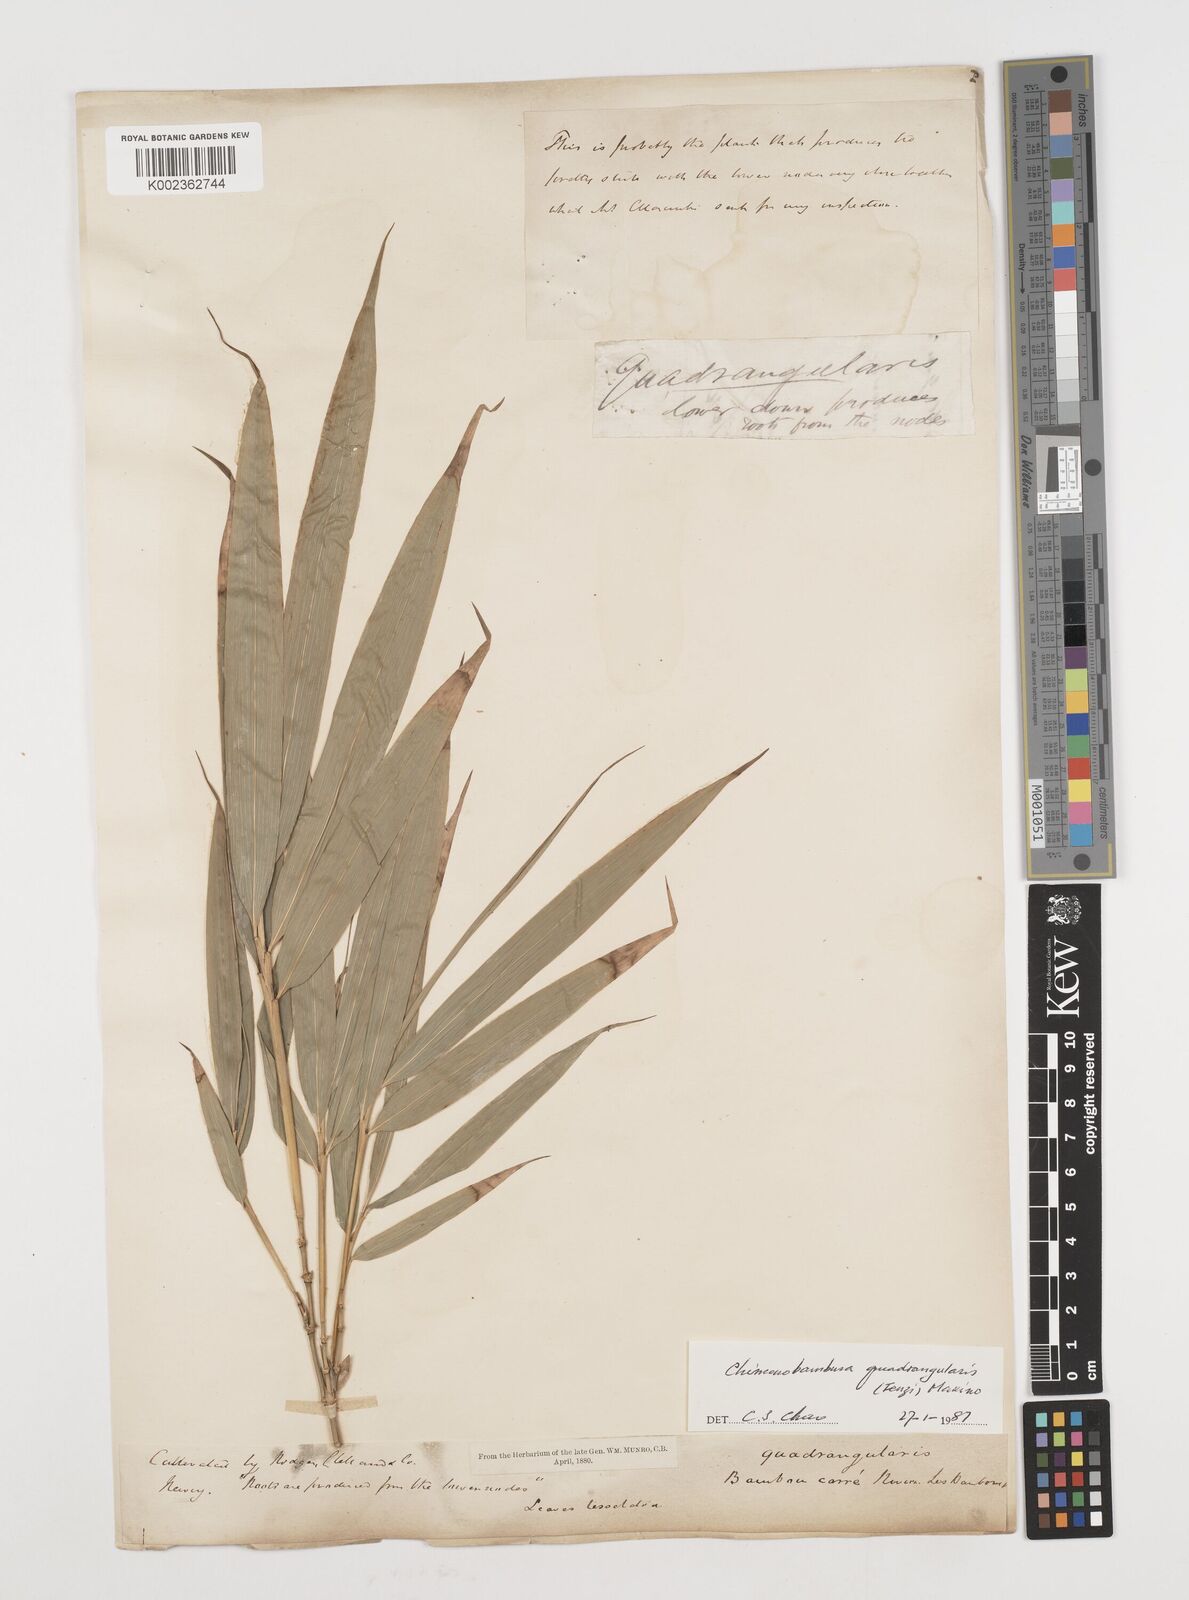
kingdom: Plantae
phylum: Tracheophyta
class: Liliopsida
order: Poales
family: Poaceae
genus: Chimonobambusa
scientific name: Chimonobambusa quadrangularis
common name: Square-stemmed bamboo
